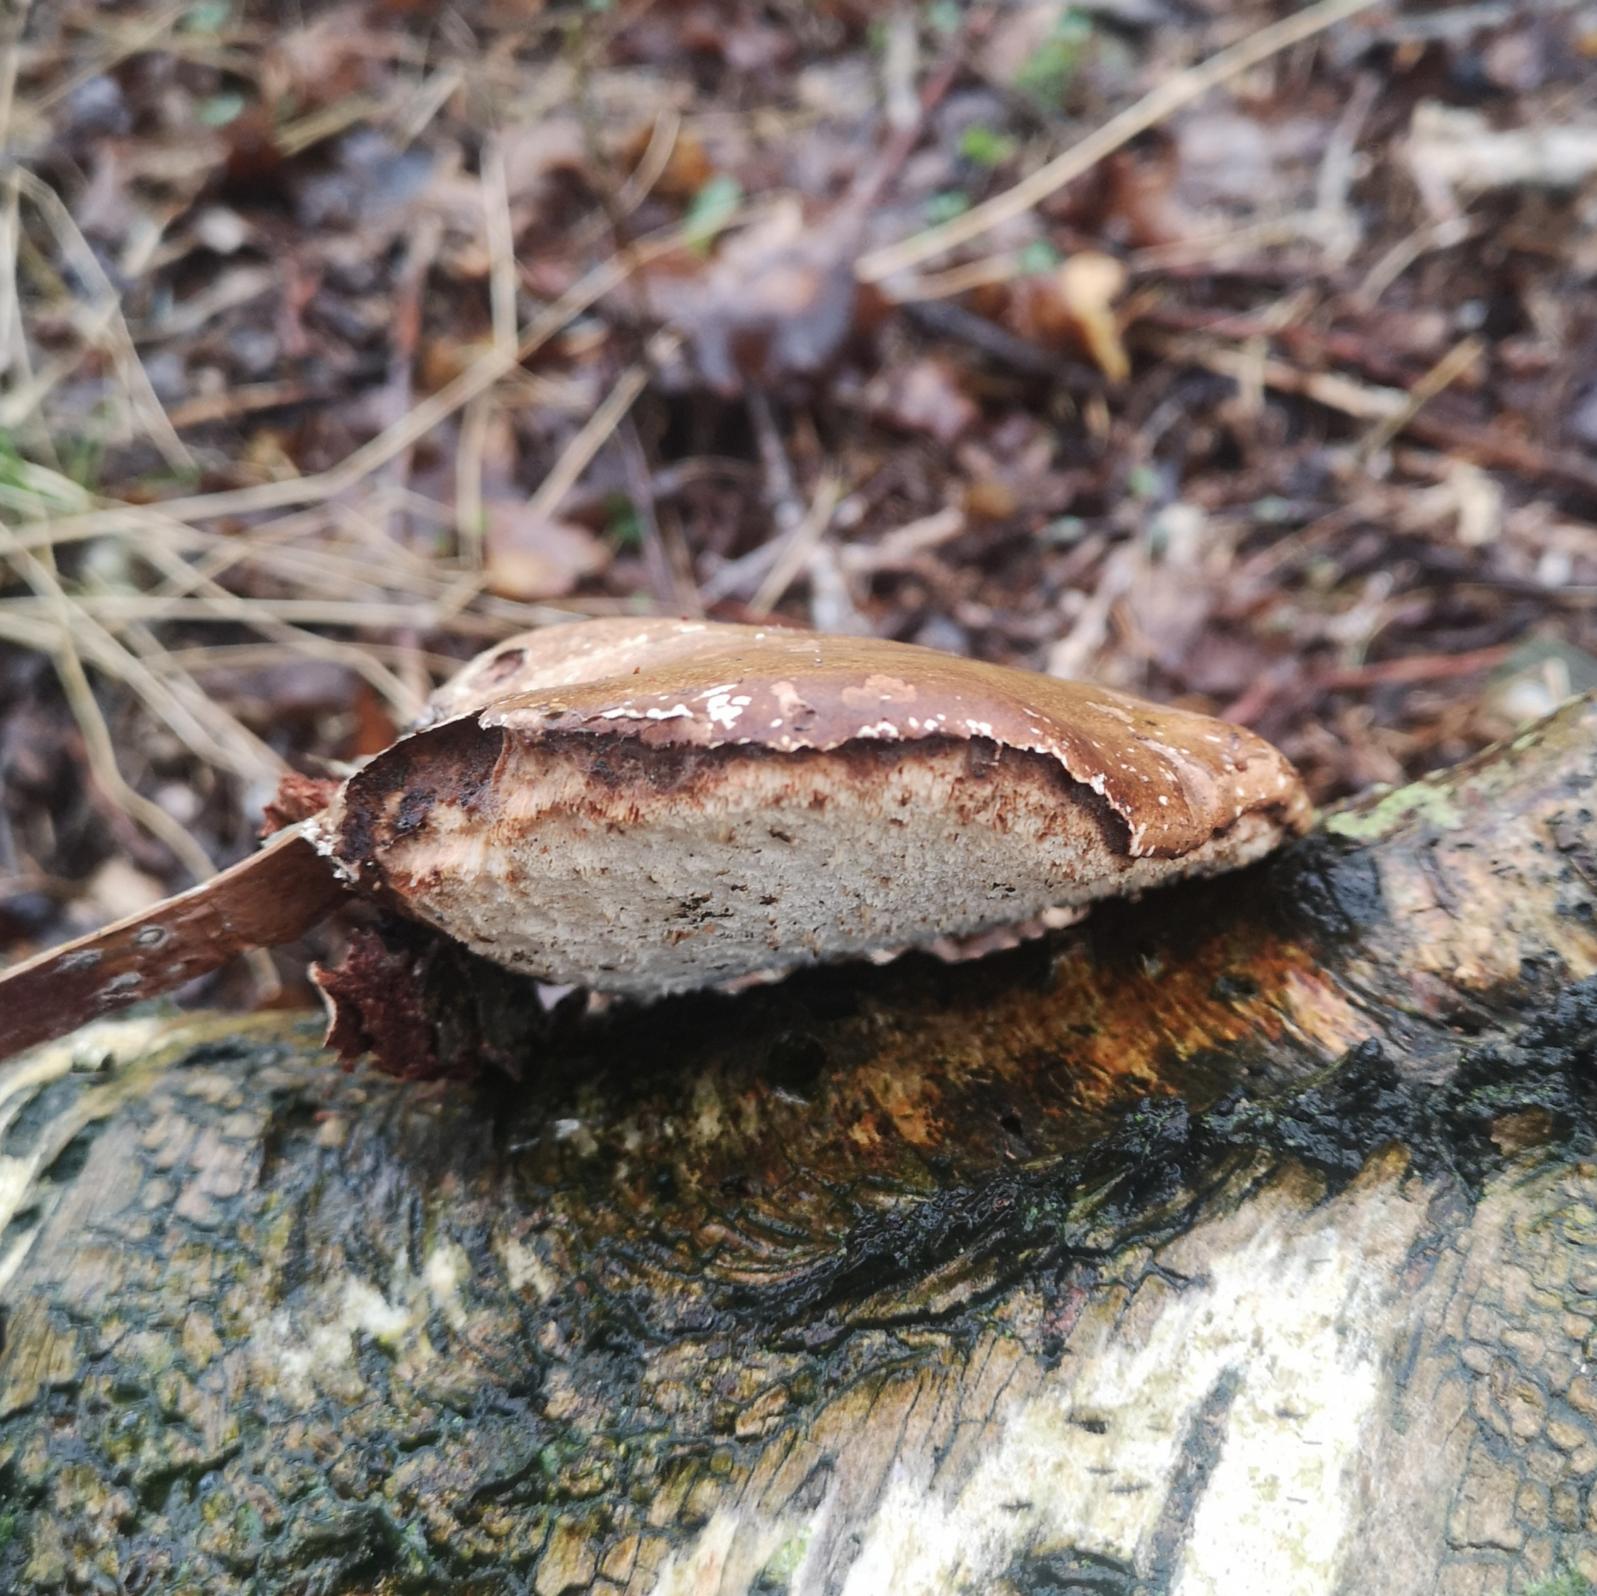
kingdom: Fungi
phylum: Basidiomycota
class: Agaricomycetes
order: Polyporales
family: Fomitopsidaceae
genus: Fomitopsis
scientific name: Fomitopsis betulina
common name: Birkeporesvamp
